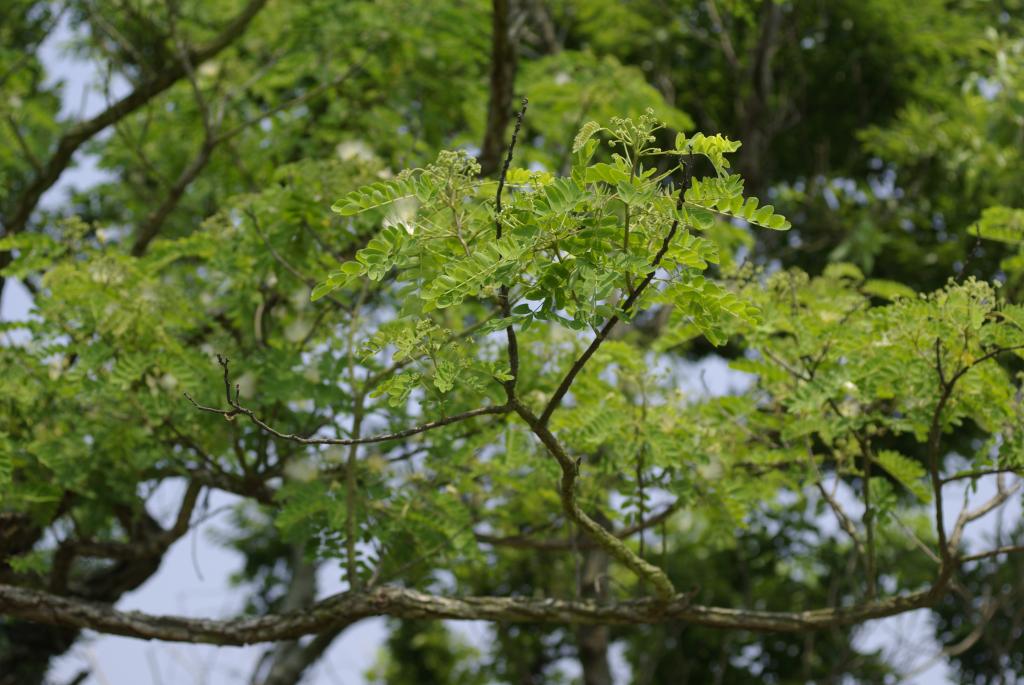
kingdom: Plantae
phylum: Tracheophyta
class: Magnoliopsida
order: Fabales
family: Fabaceae
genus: Albizia
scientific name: Albizia kalkora
